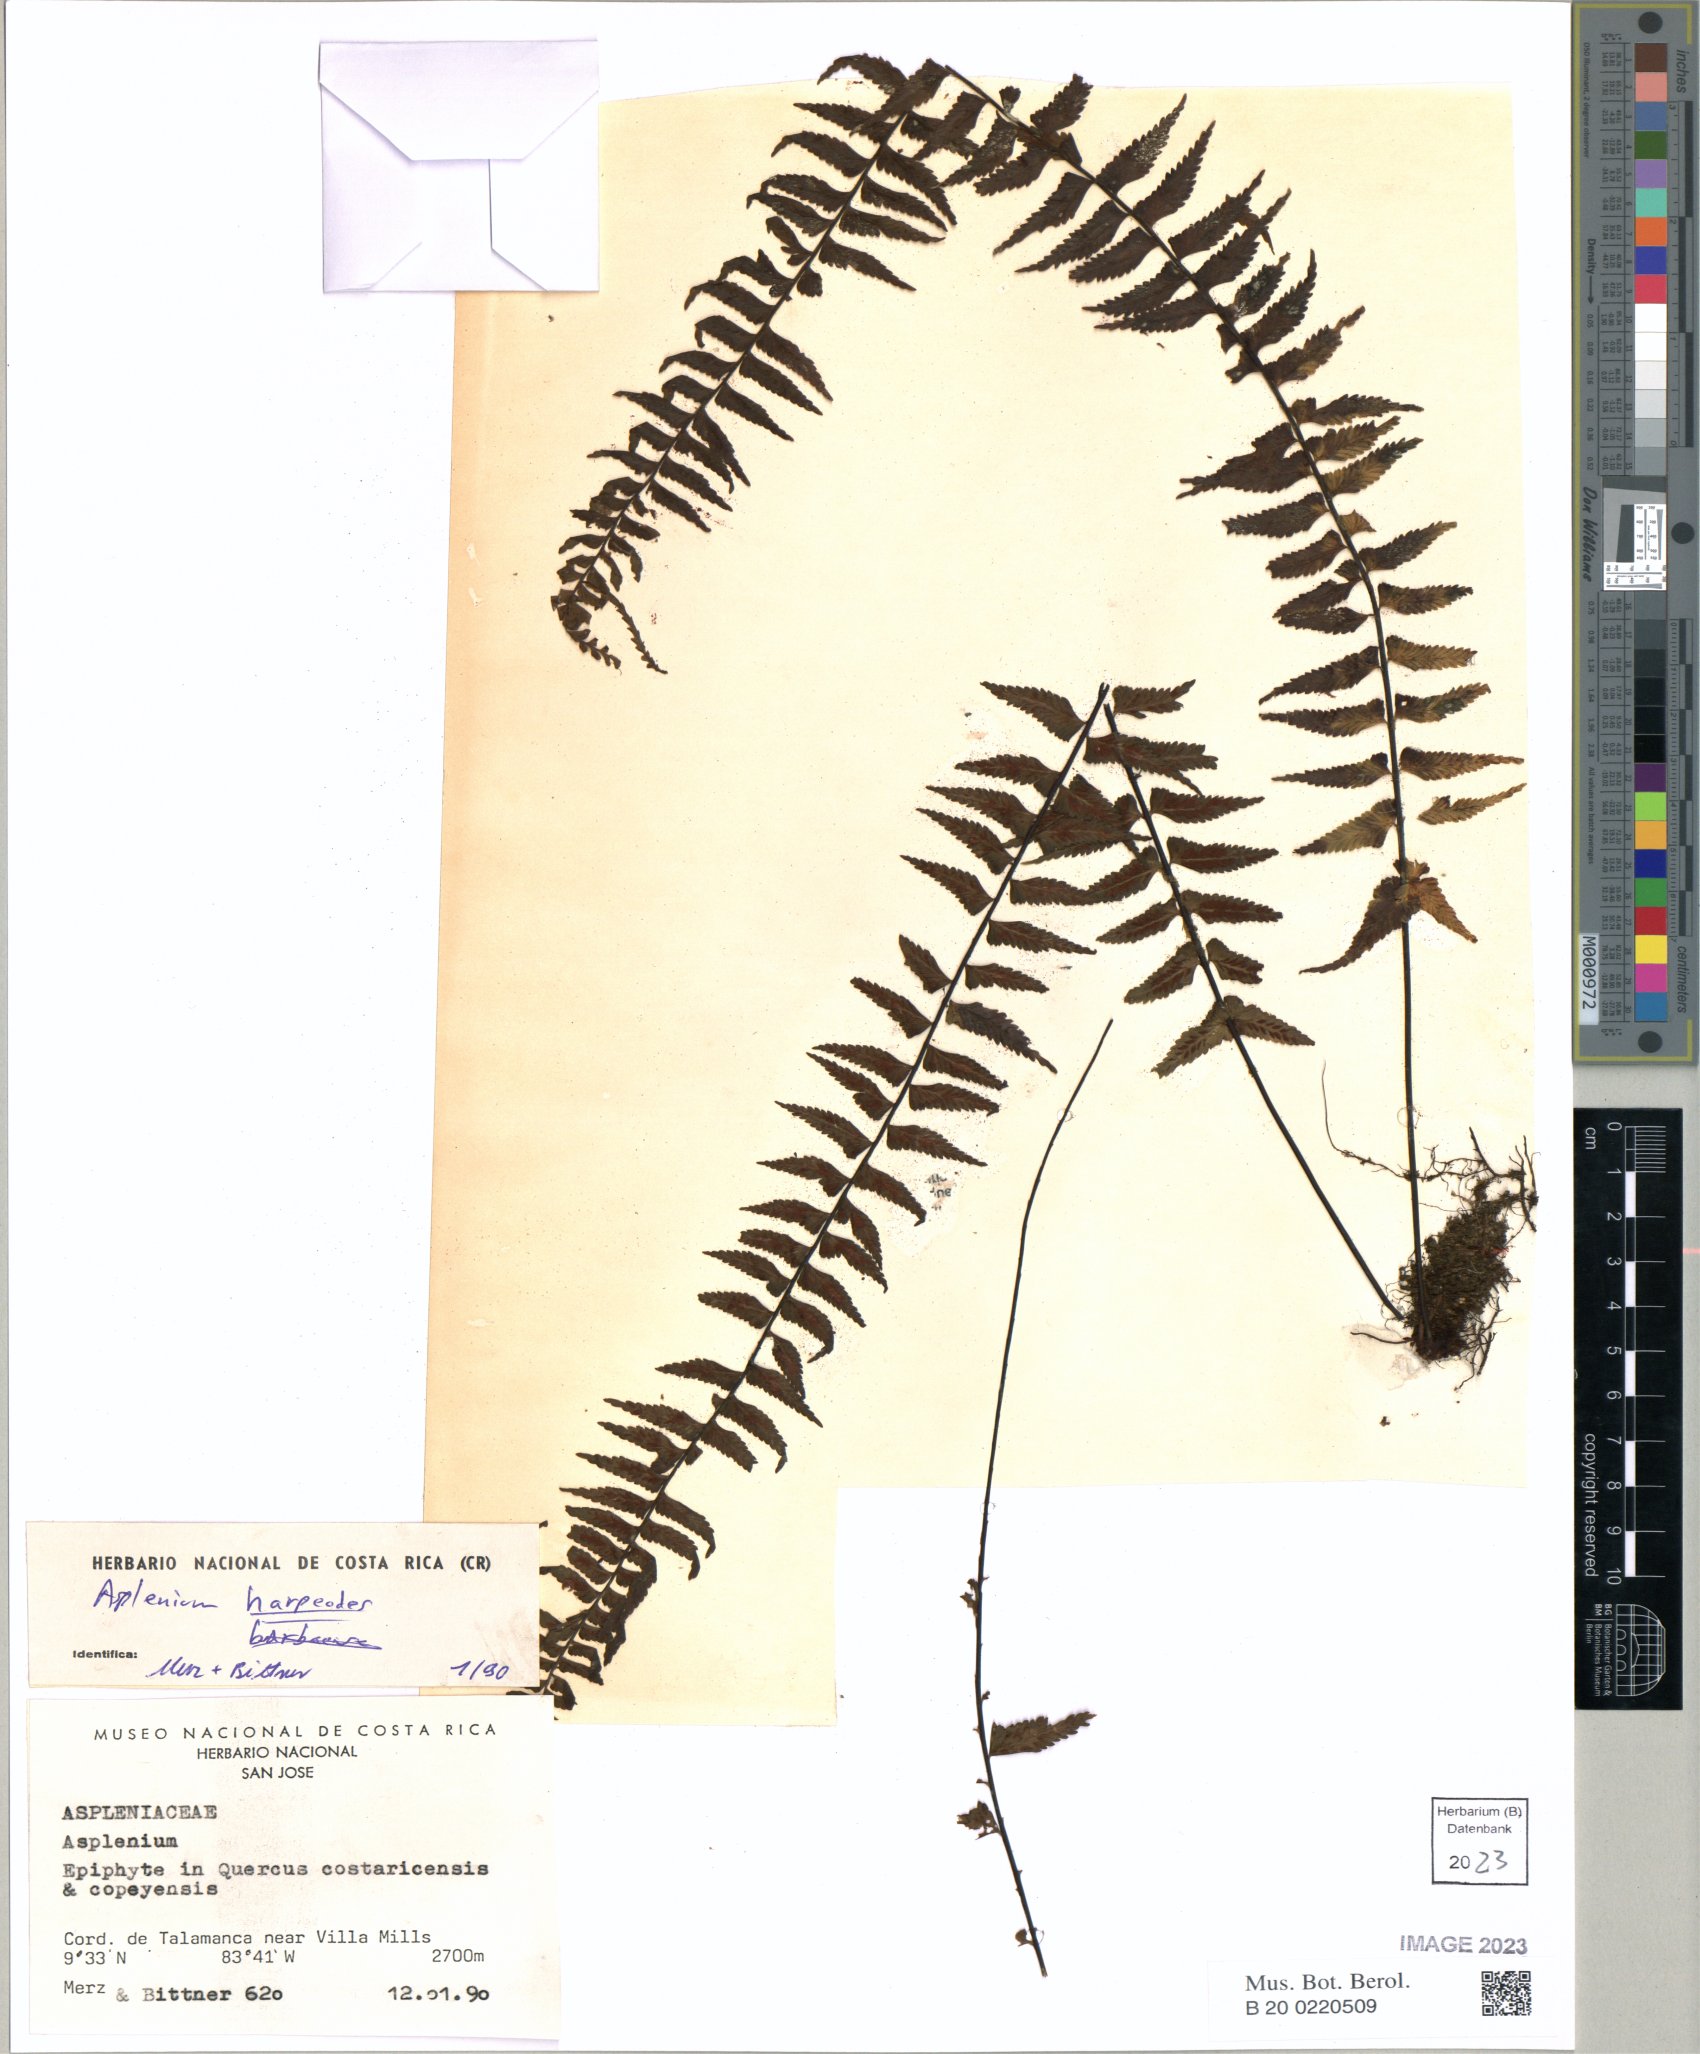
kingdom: Plantae
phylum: Tracheophyta
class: Polypodiopsida
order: Polypodiales
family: Aspleniaceae
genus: Asplenium
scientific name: Asplenium harpeodes
